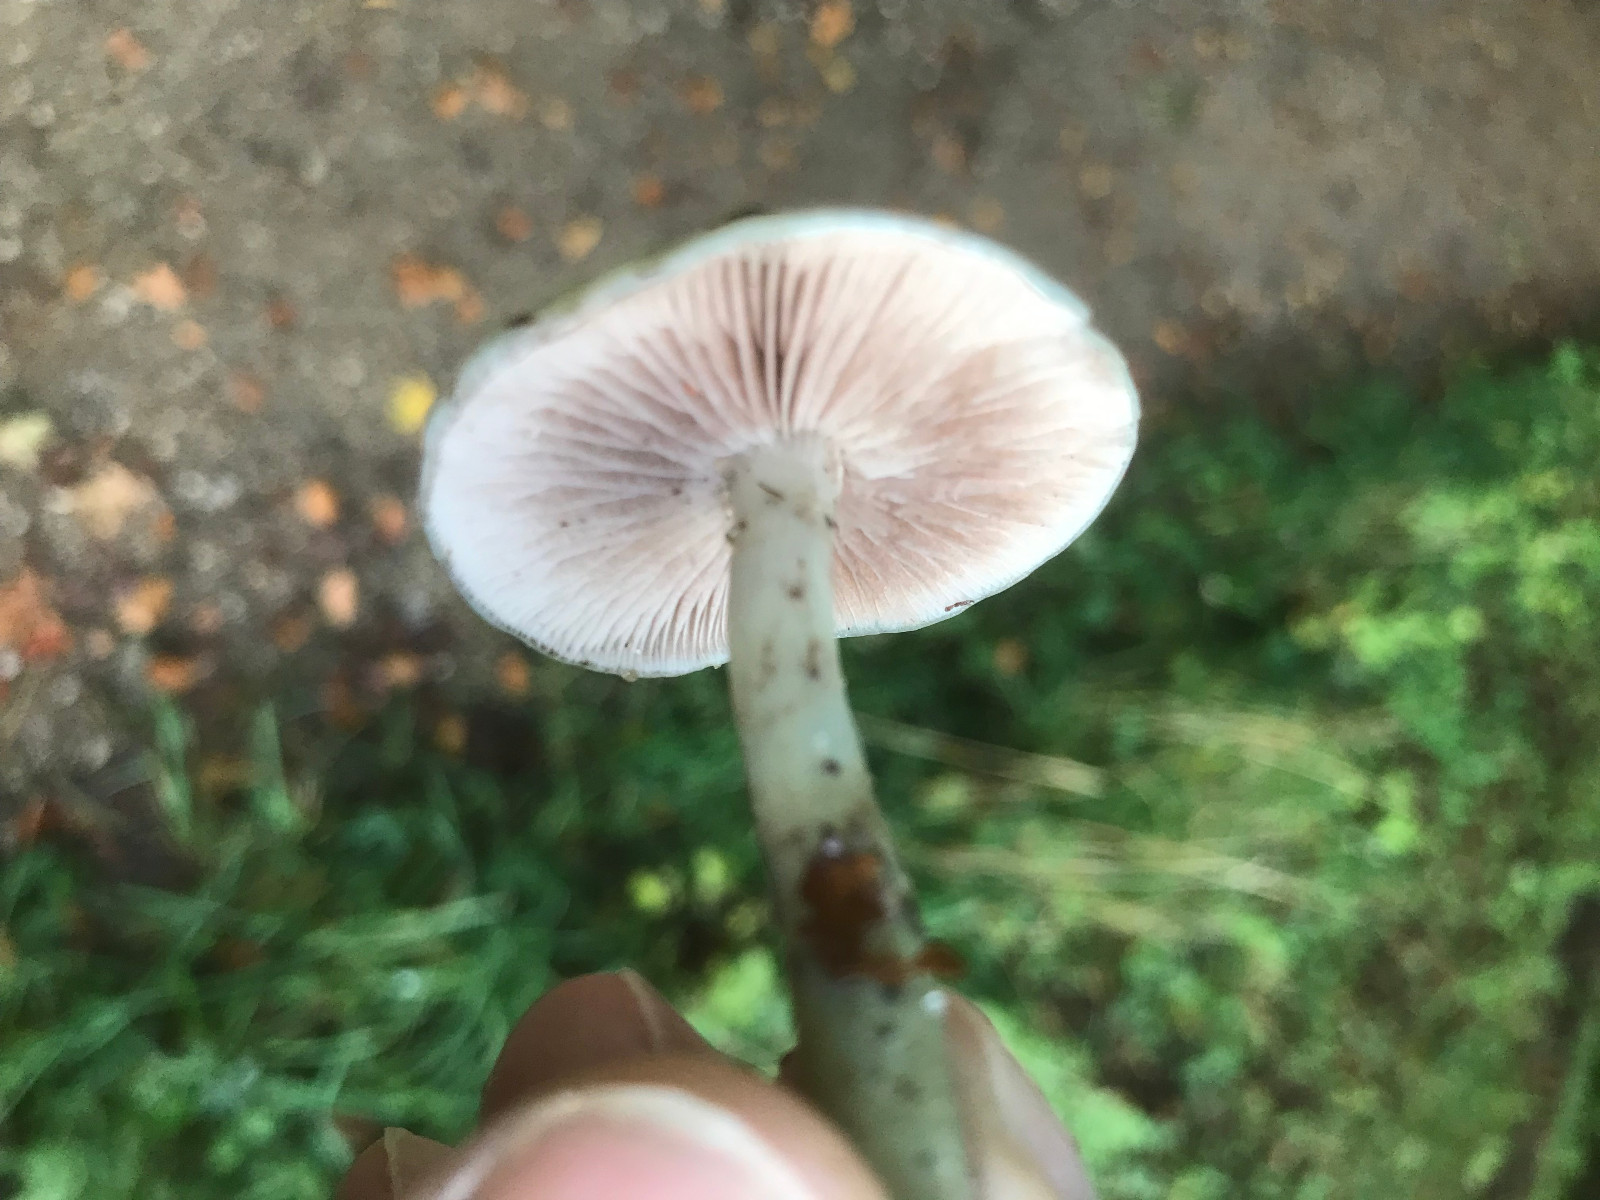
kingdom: Fungi
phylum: Basidiomycota
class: Agaricomycetes
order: Agaricales
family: Strophariaceae
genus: Stropharia
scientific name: Stropharia pseudocyanea
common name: blegblå bredblad
